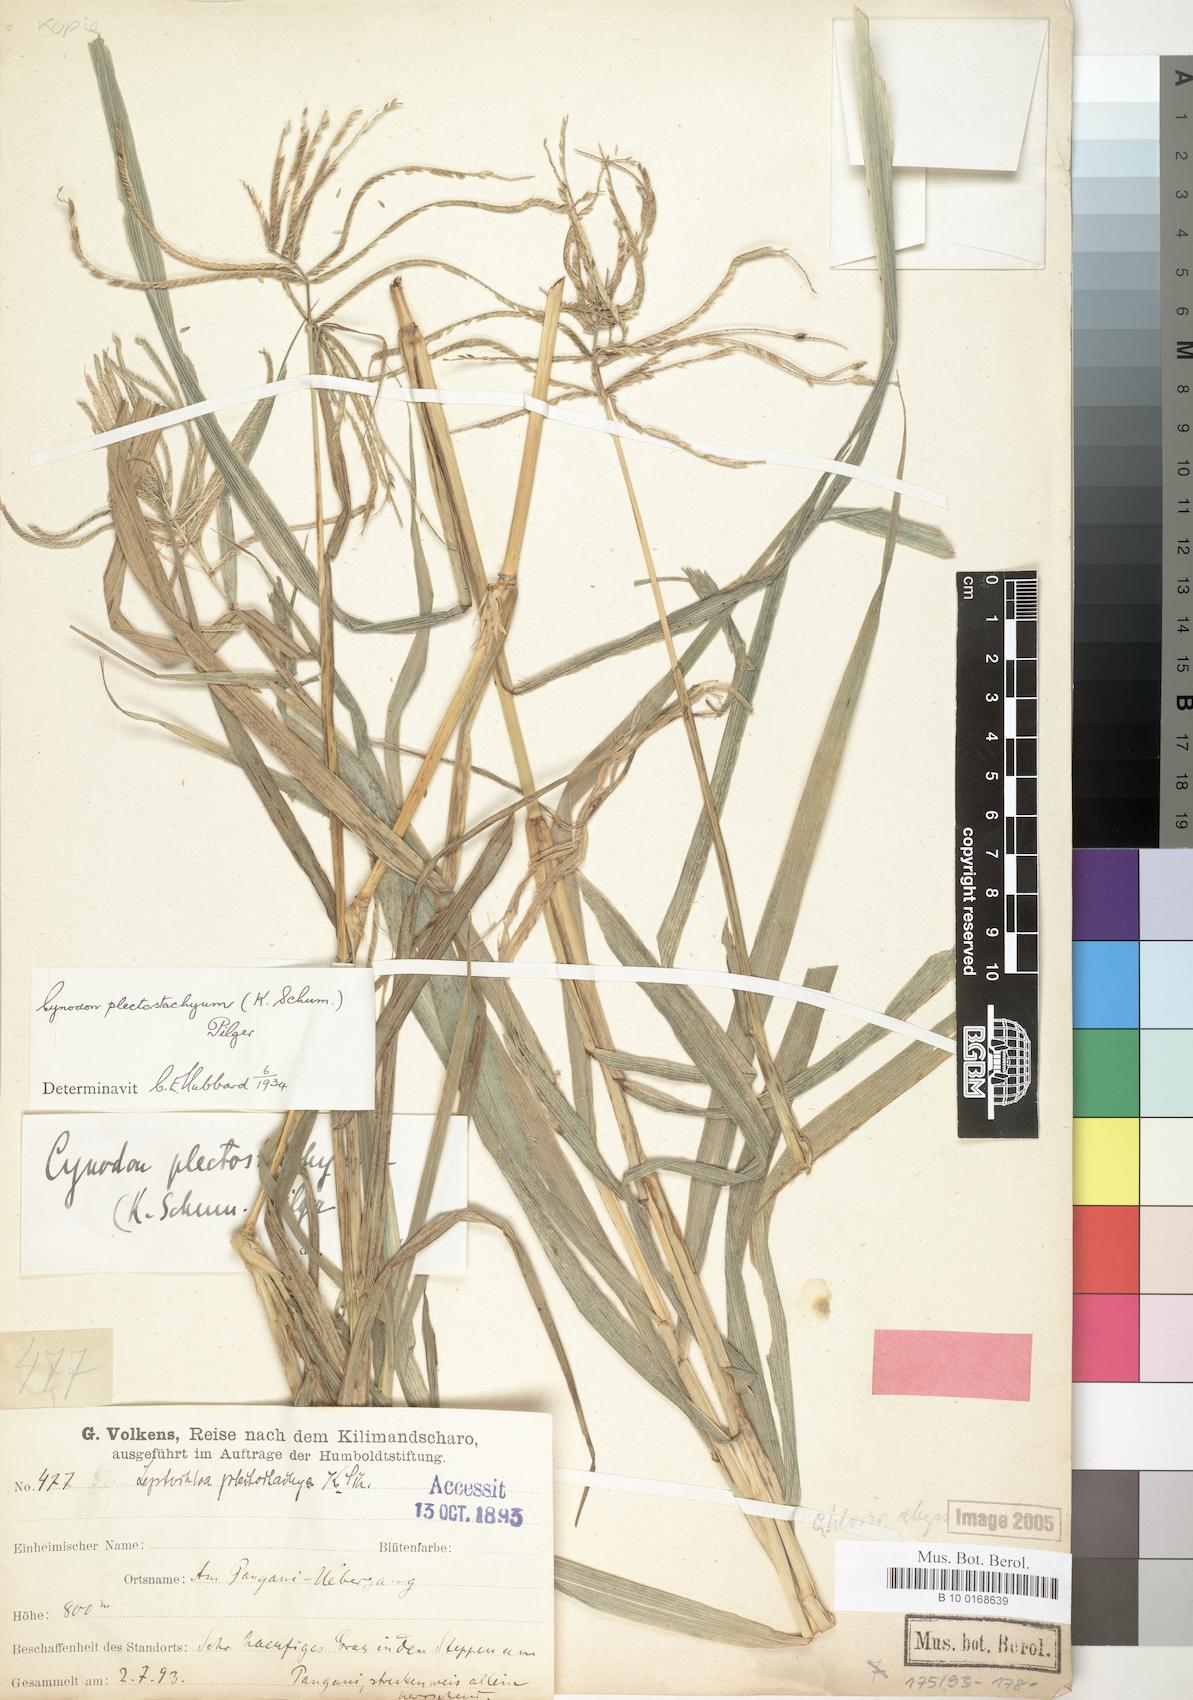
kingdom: Plantae
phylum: Tracheophyta
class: Liliopsida
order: Poales
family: Poaceae
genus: Cynodon
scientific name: Cynodon plectostachyus
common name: Stargrass
